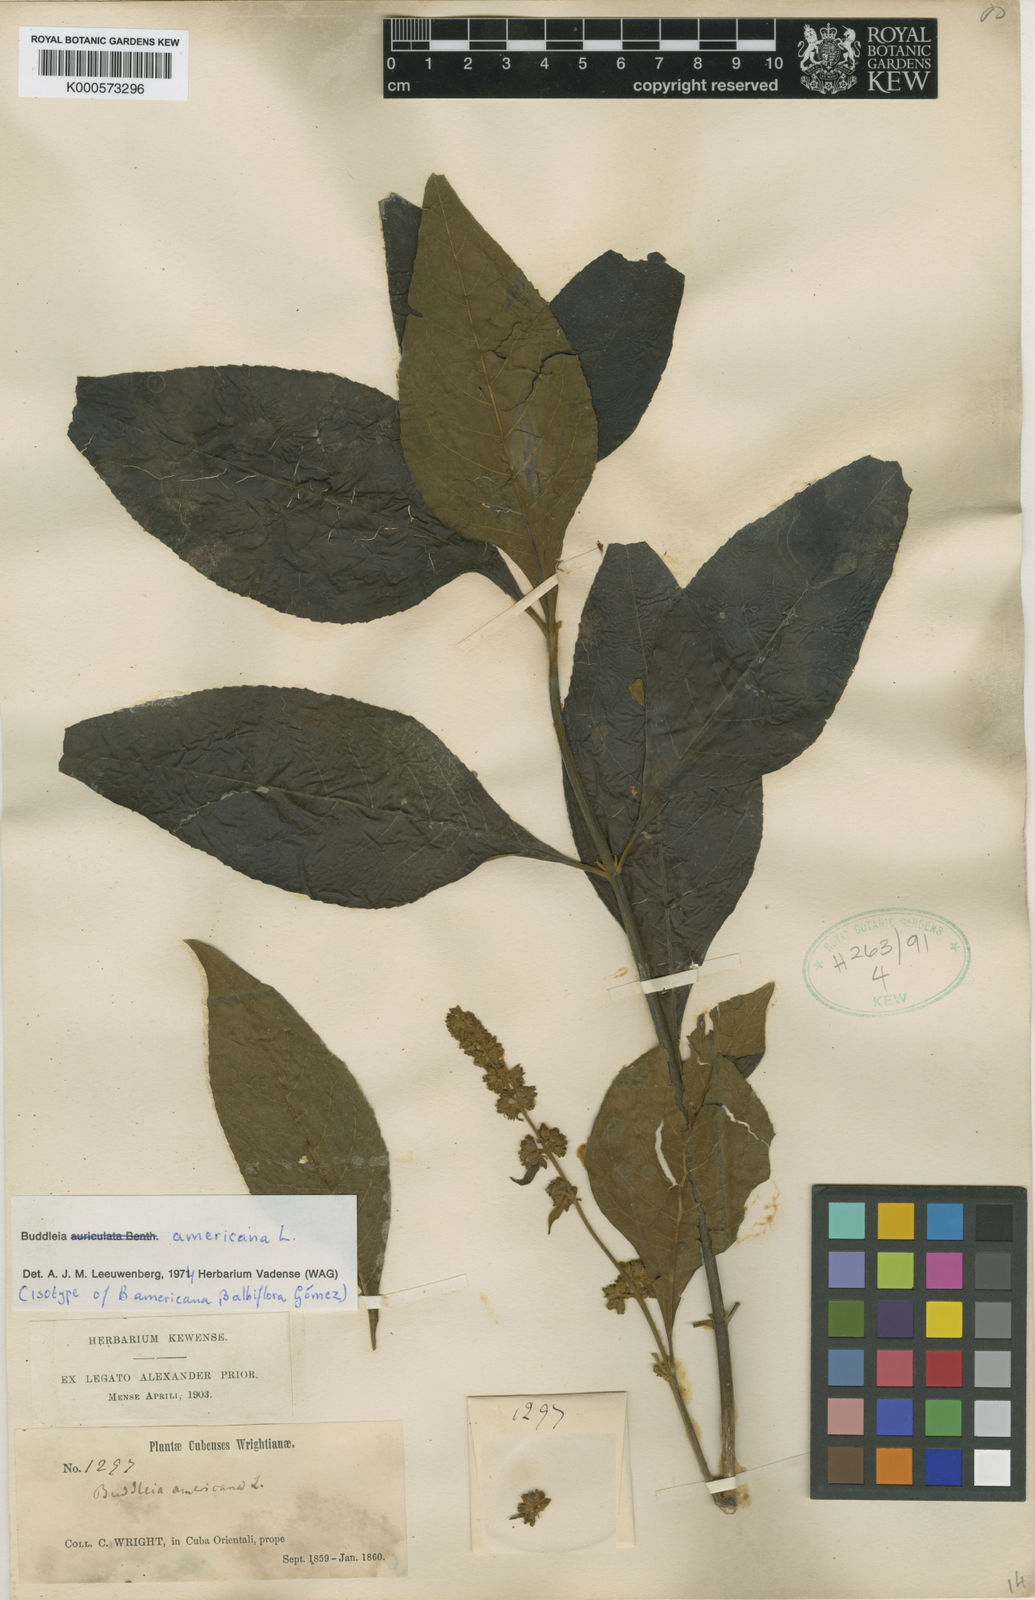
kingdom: Plantae
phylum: Tracheophyta
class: Magnoliopsida
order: Lamiales
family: Scrophulariaceae
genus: Buddleja
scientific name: Buddleja americana
